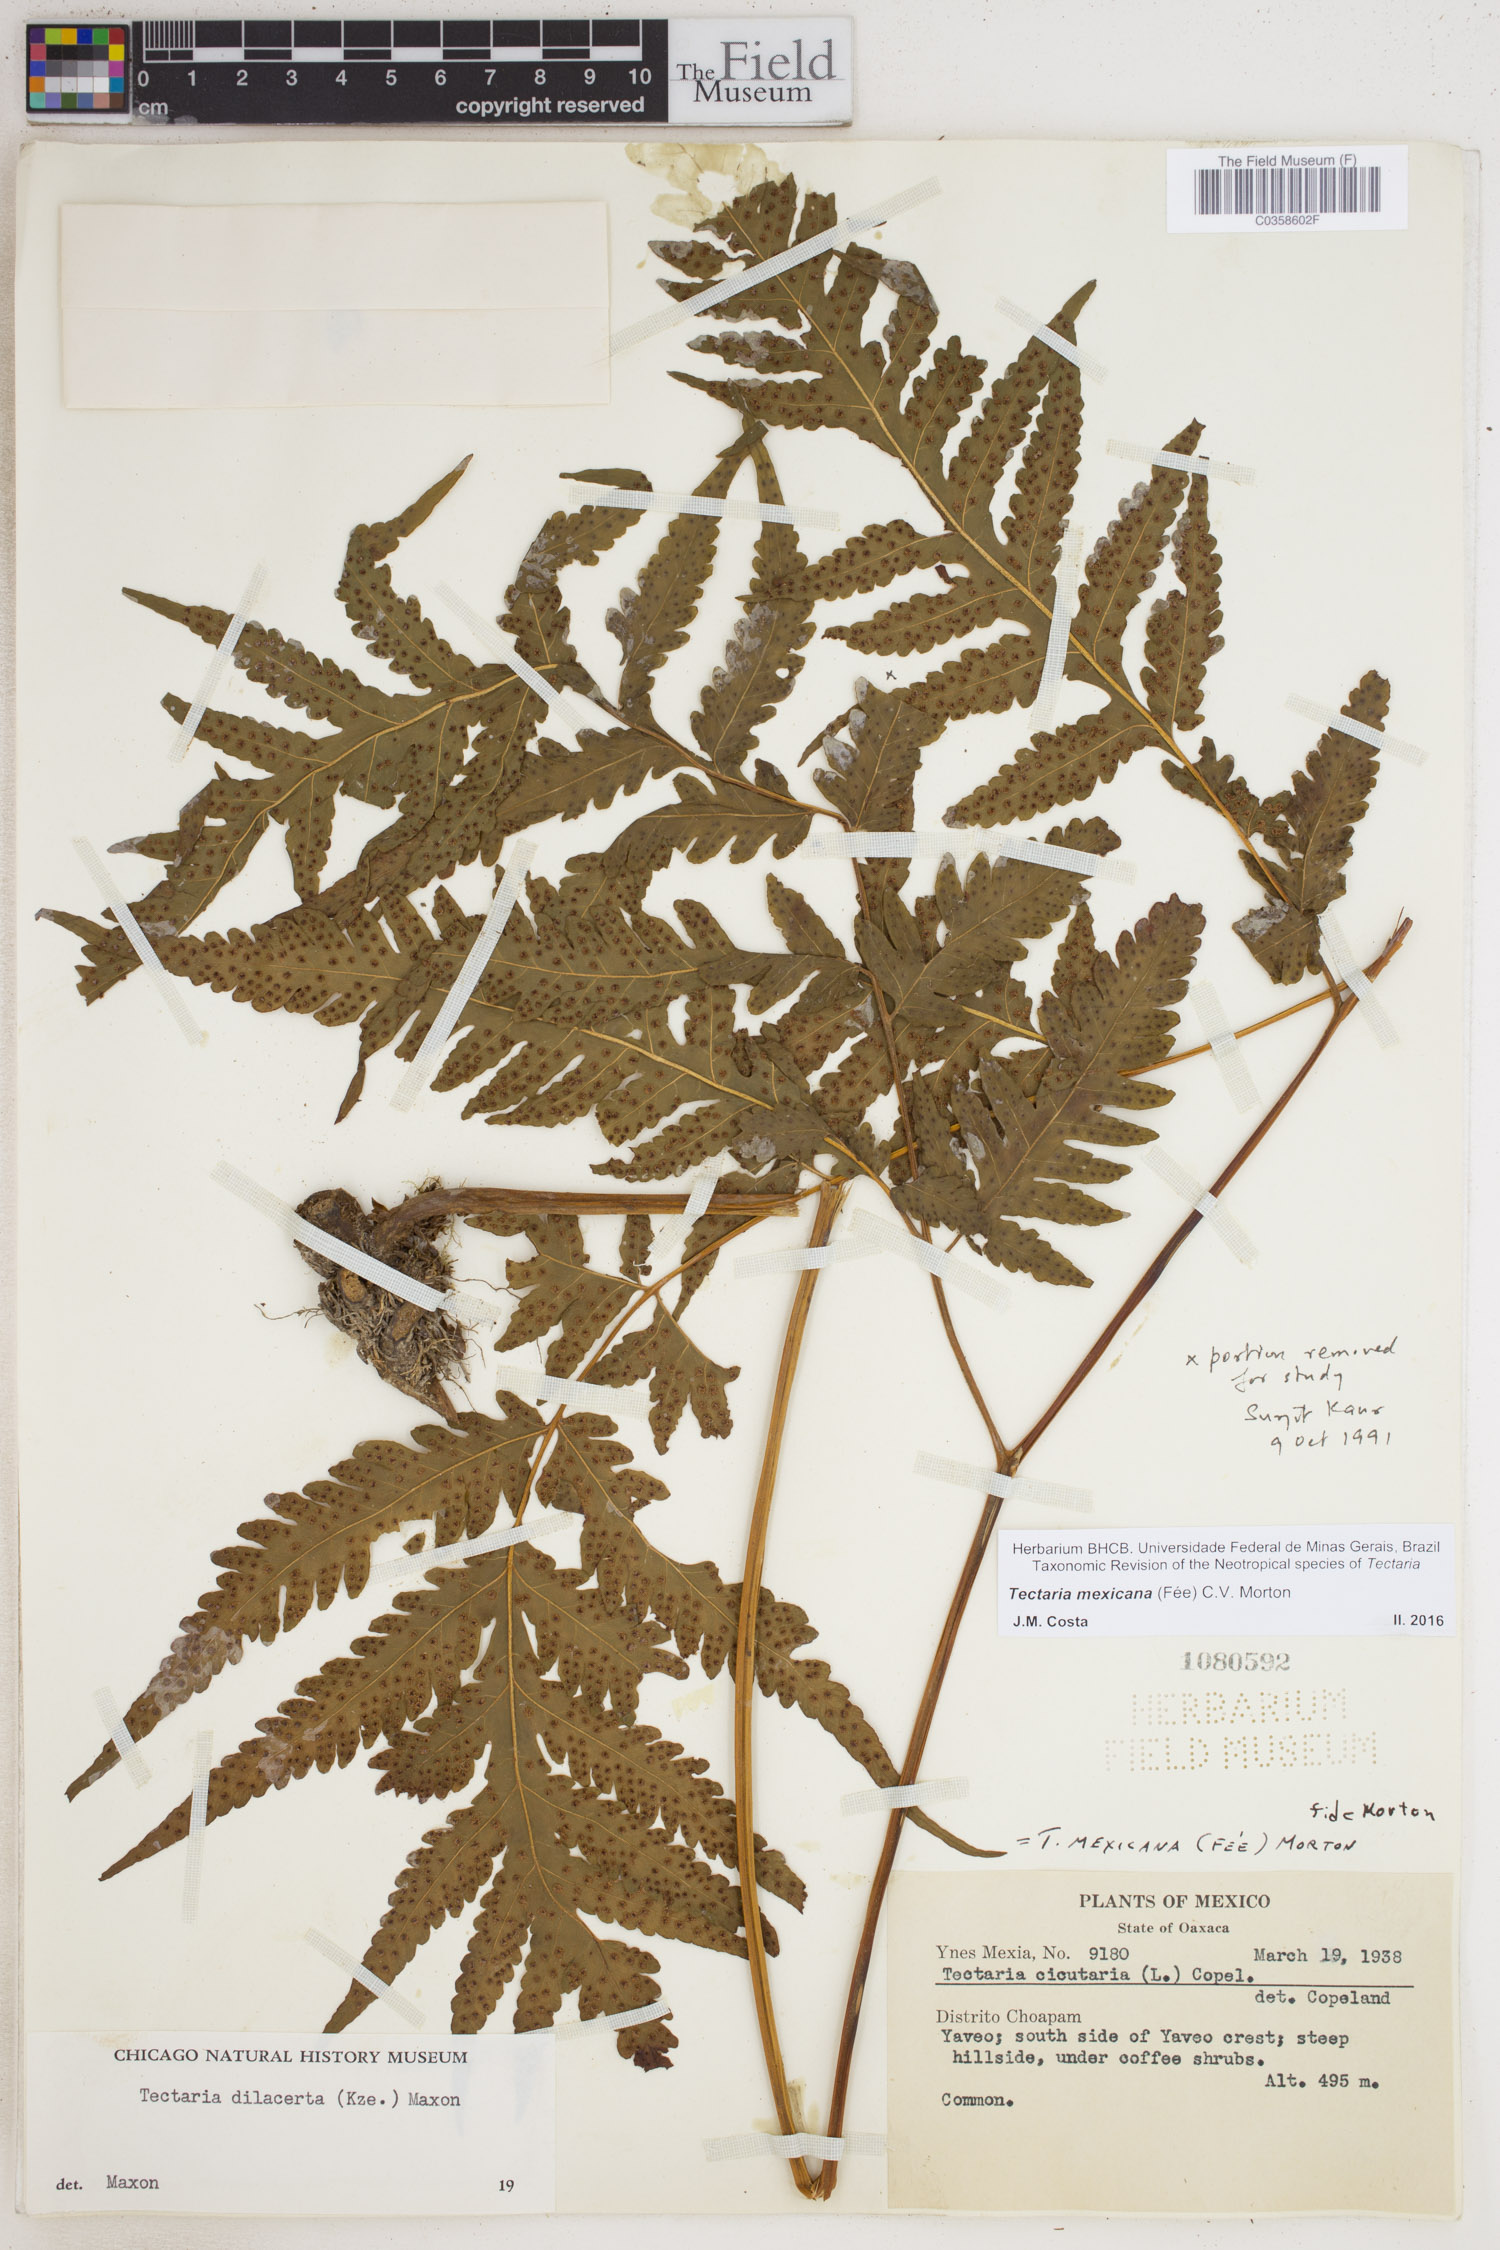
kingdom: Plantae
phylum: Tracheophyta
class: Polypodiopsida
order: Polypodiales
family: Tectariaceae
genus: Tectaria
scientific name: Tectaria mexicana
